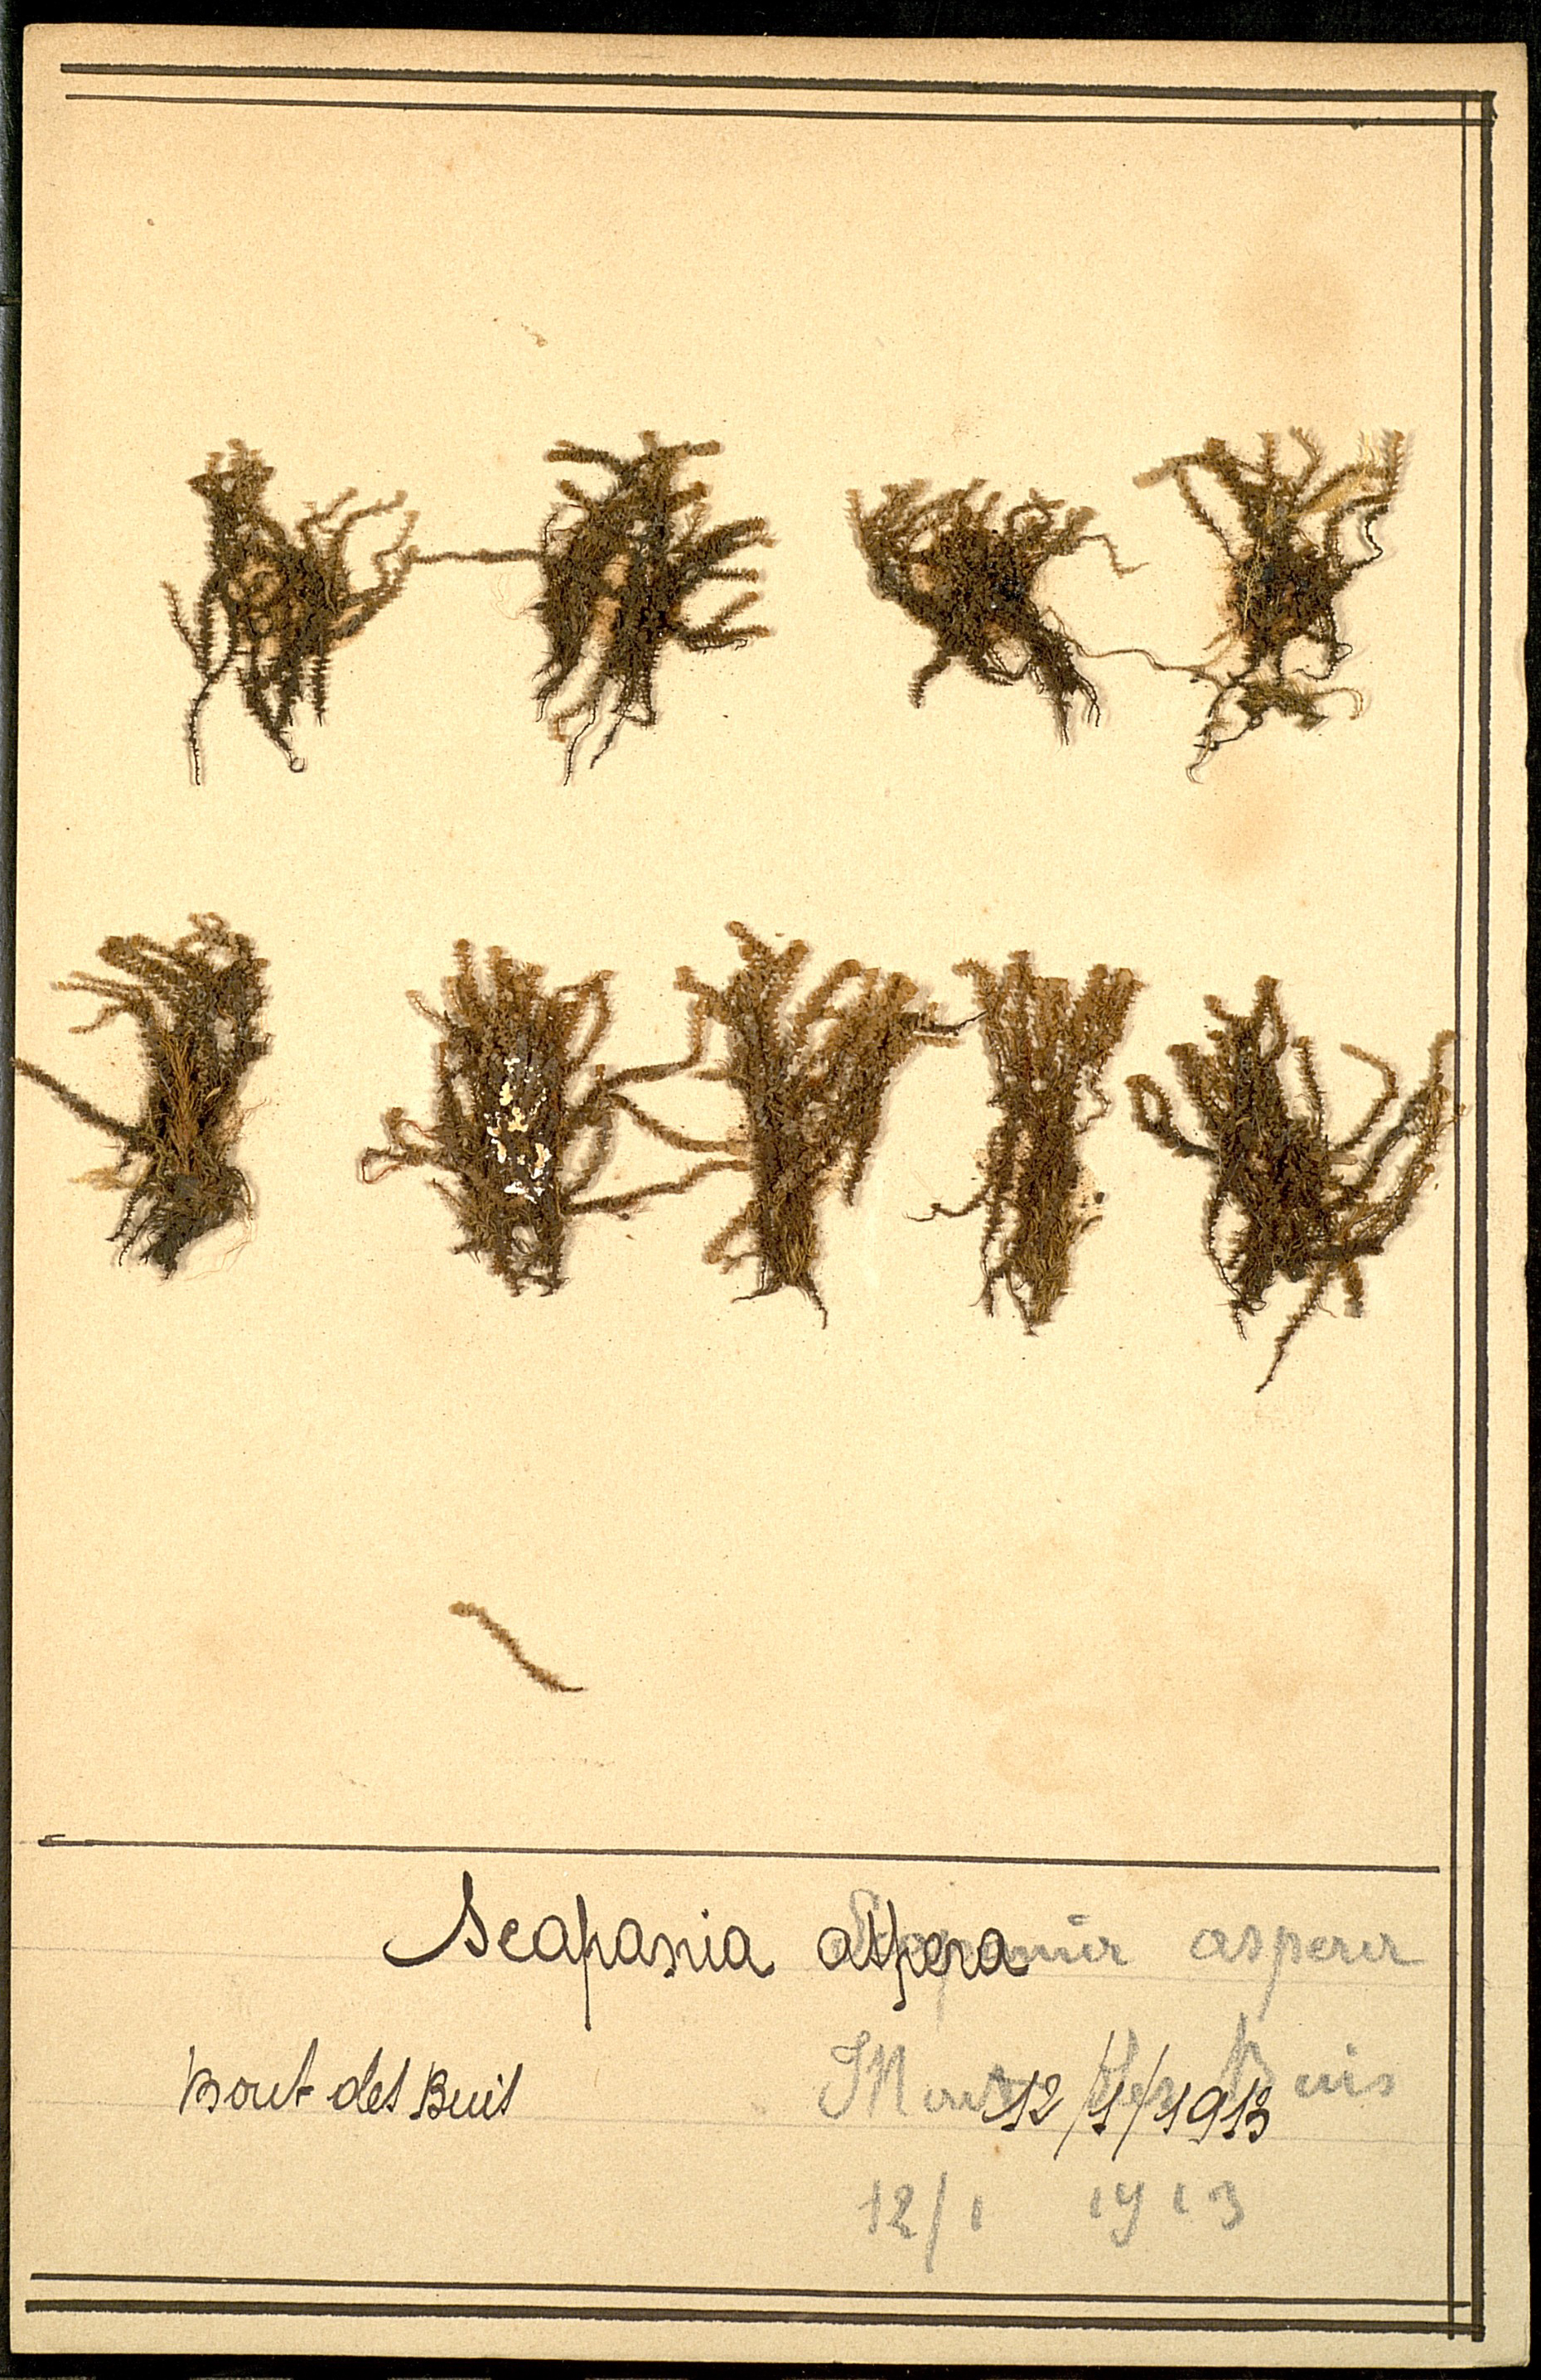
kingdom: Plantae
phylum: Marchantiophyta
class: Jungermanniopsida
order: Jungermanniales
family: Scapaniaceae
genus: Scapania
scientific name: Scapania aspera
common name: Rough earwort
